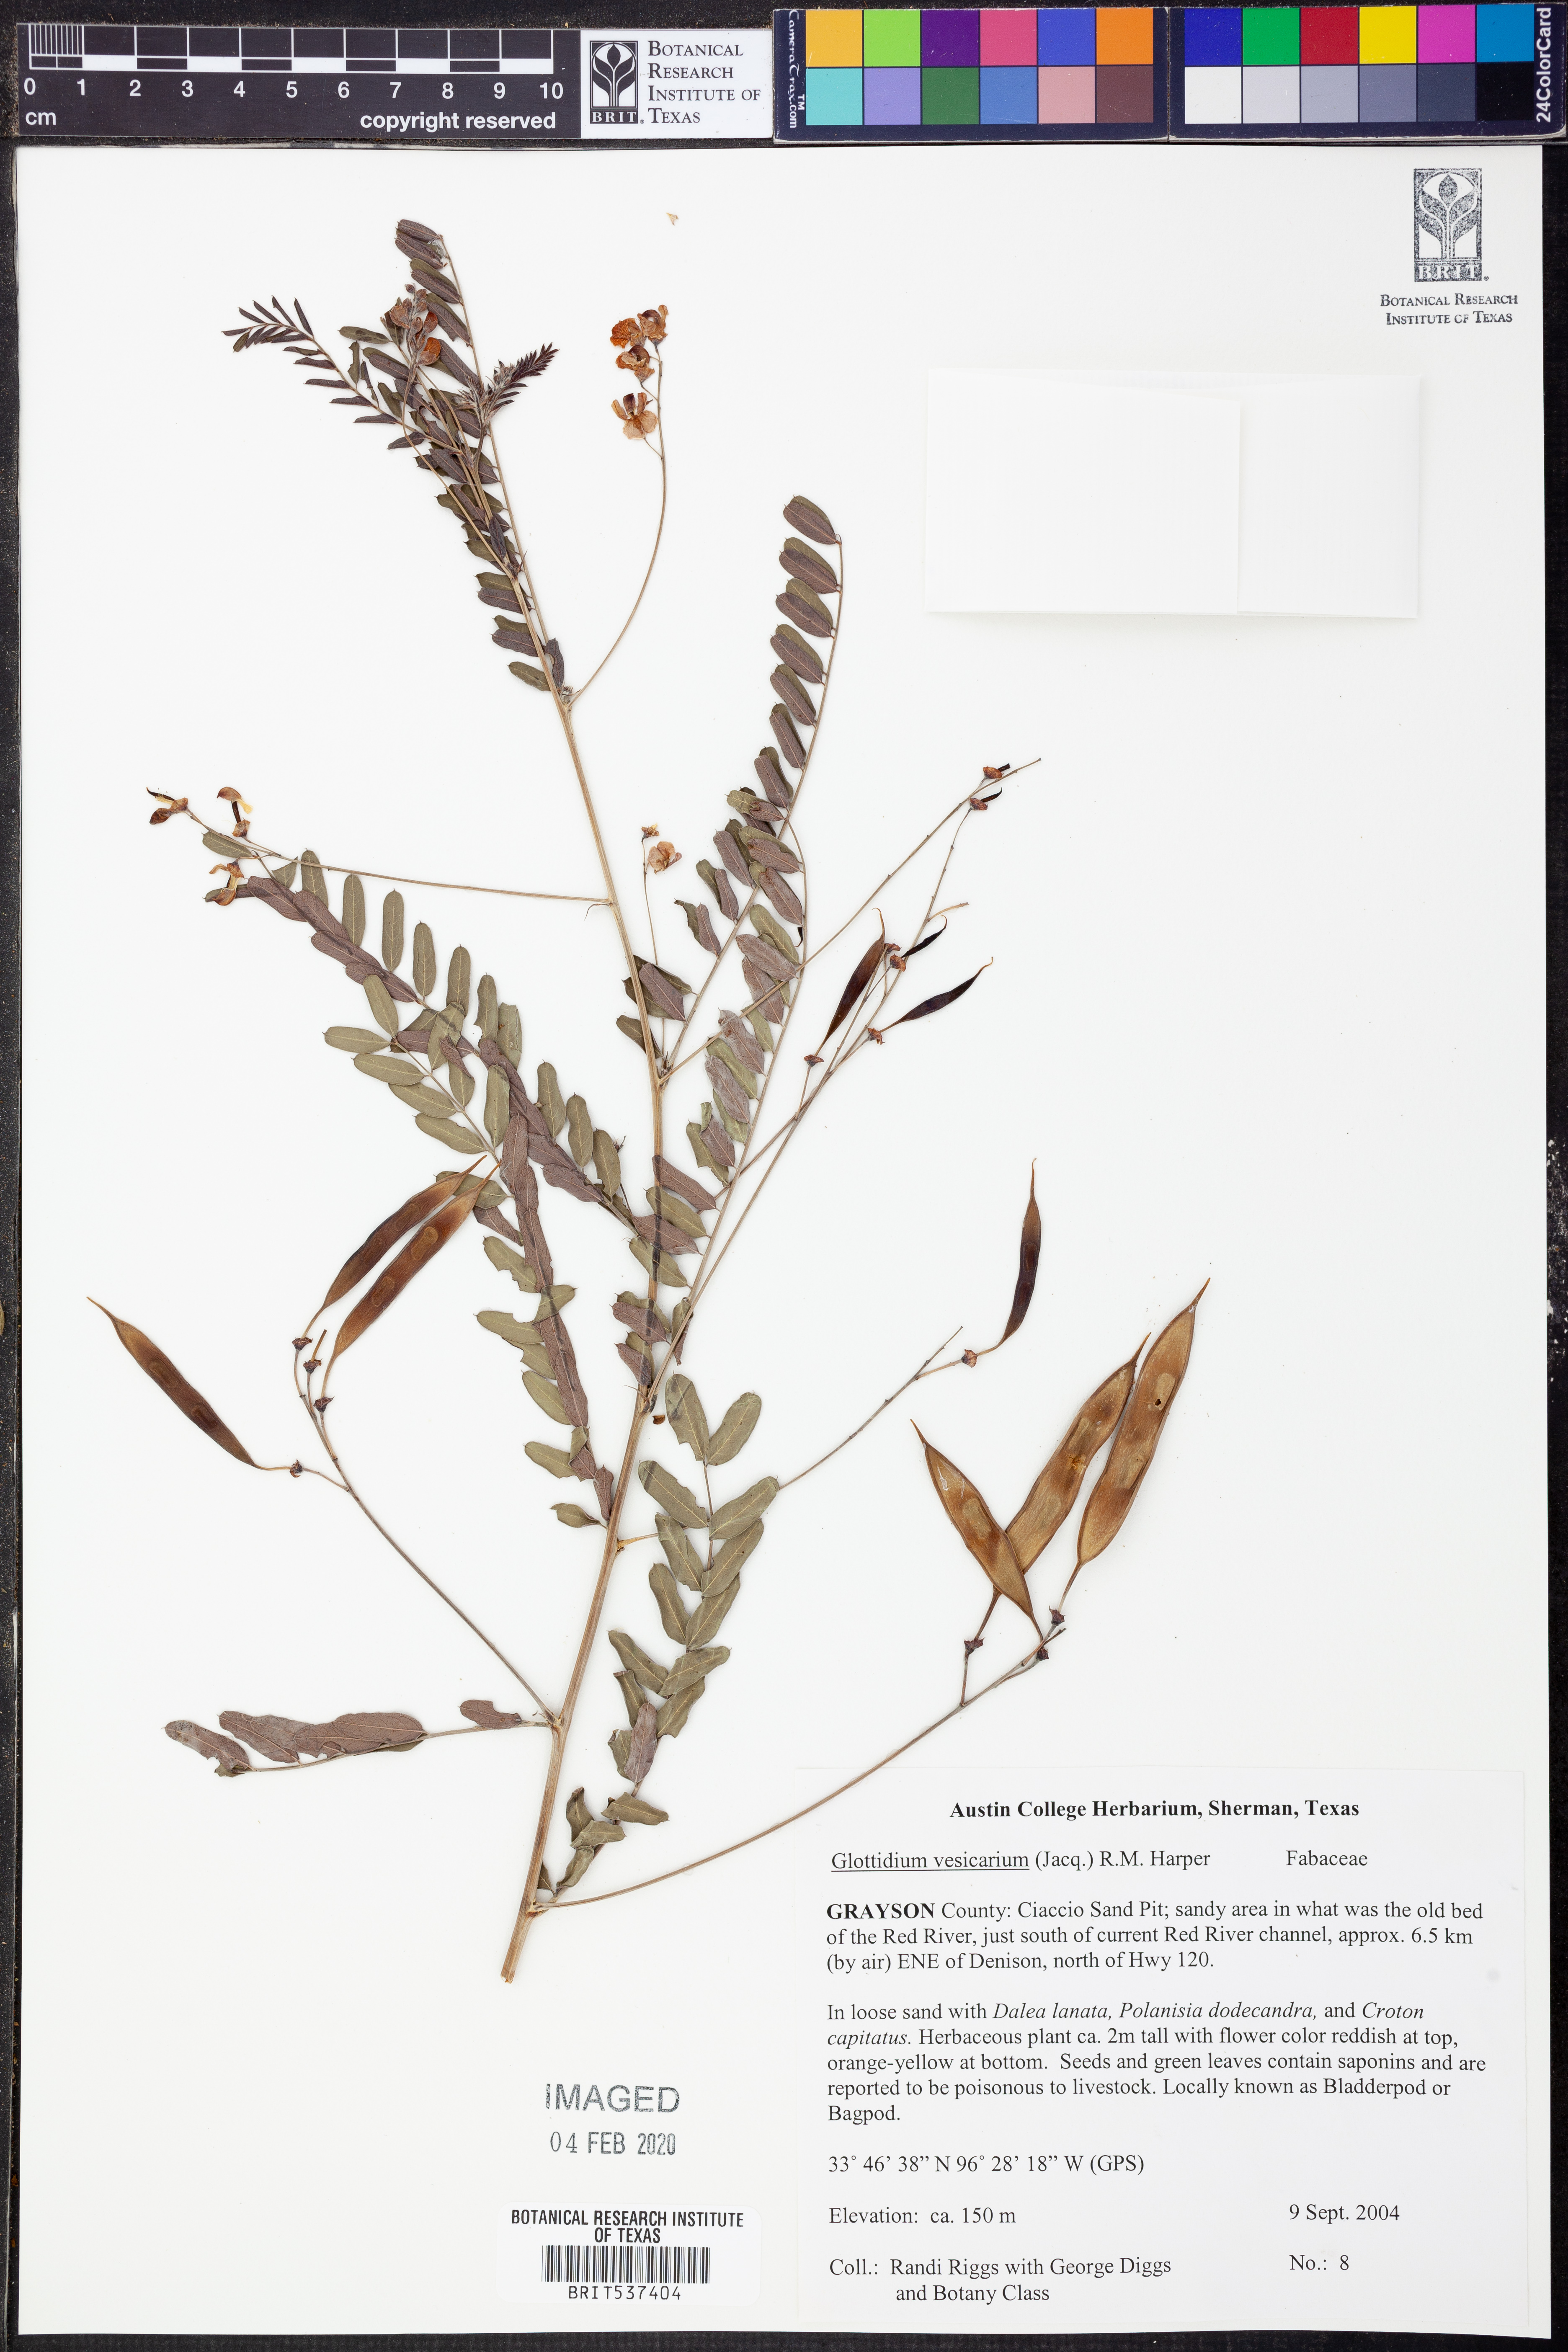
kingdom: Plantae
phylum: Tracheophyta
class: Magnoliopsida
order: Fabales
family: Fabaceae
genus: Sesbania
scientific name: Sesbania vesicaria
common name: Bagpod
